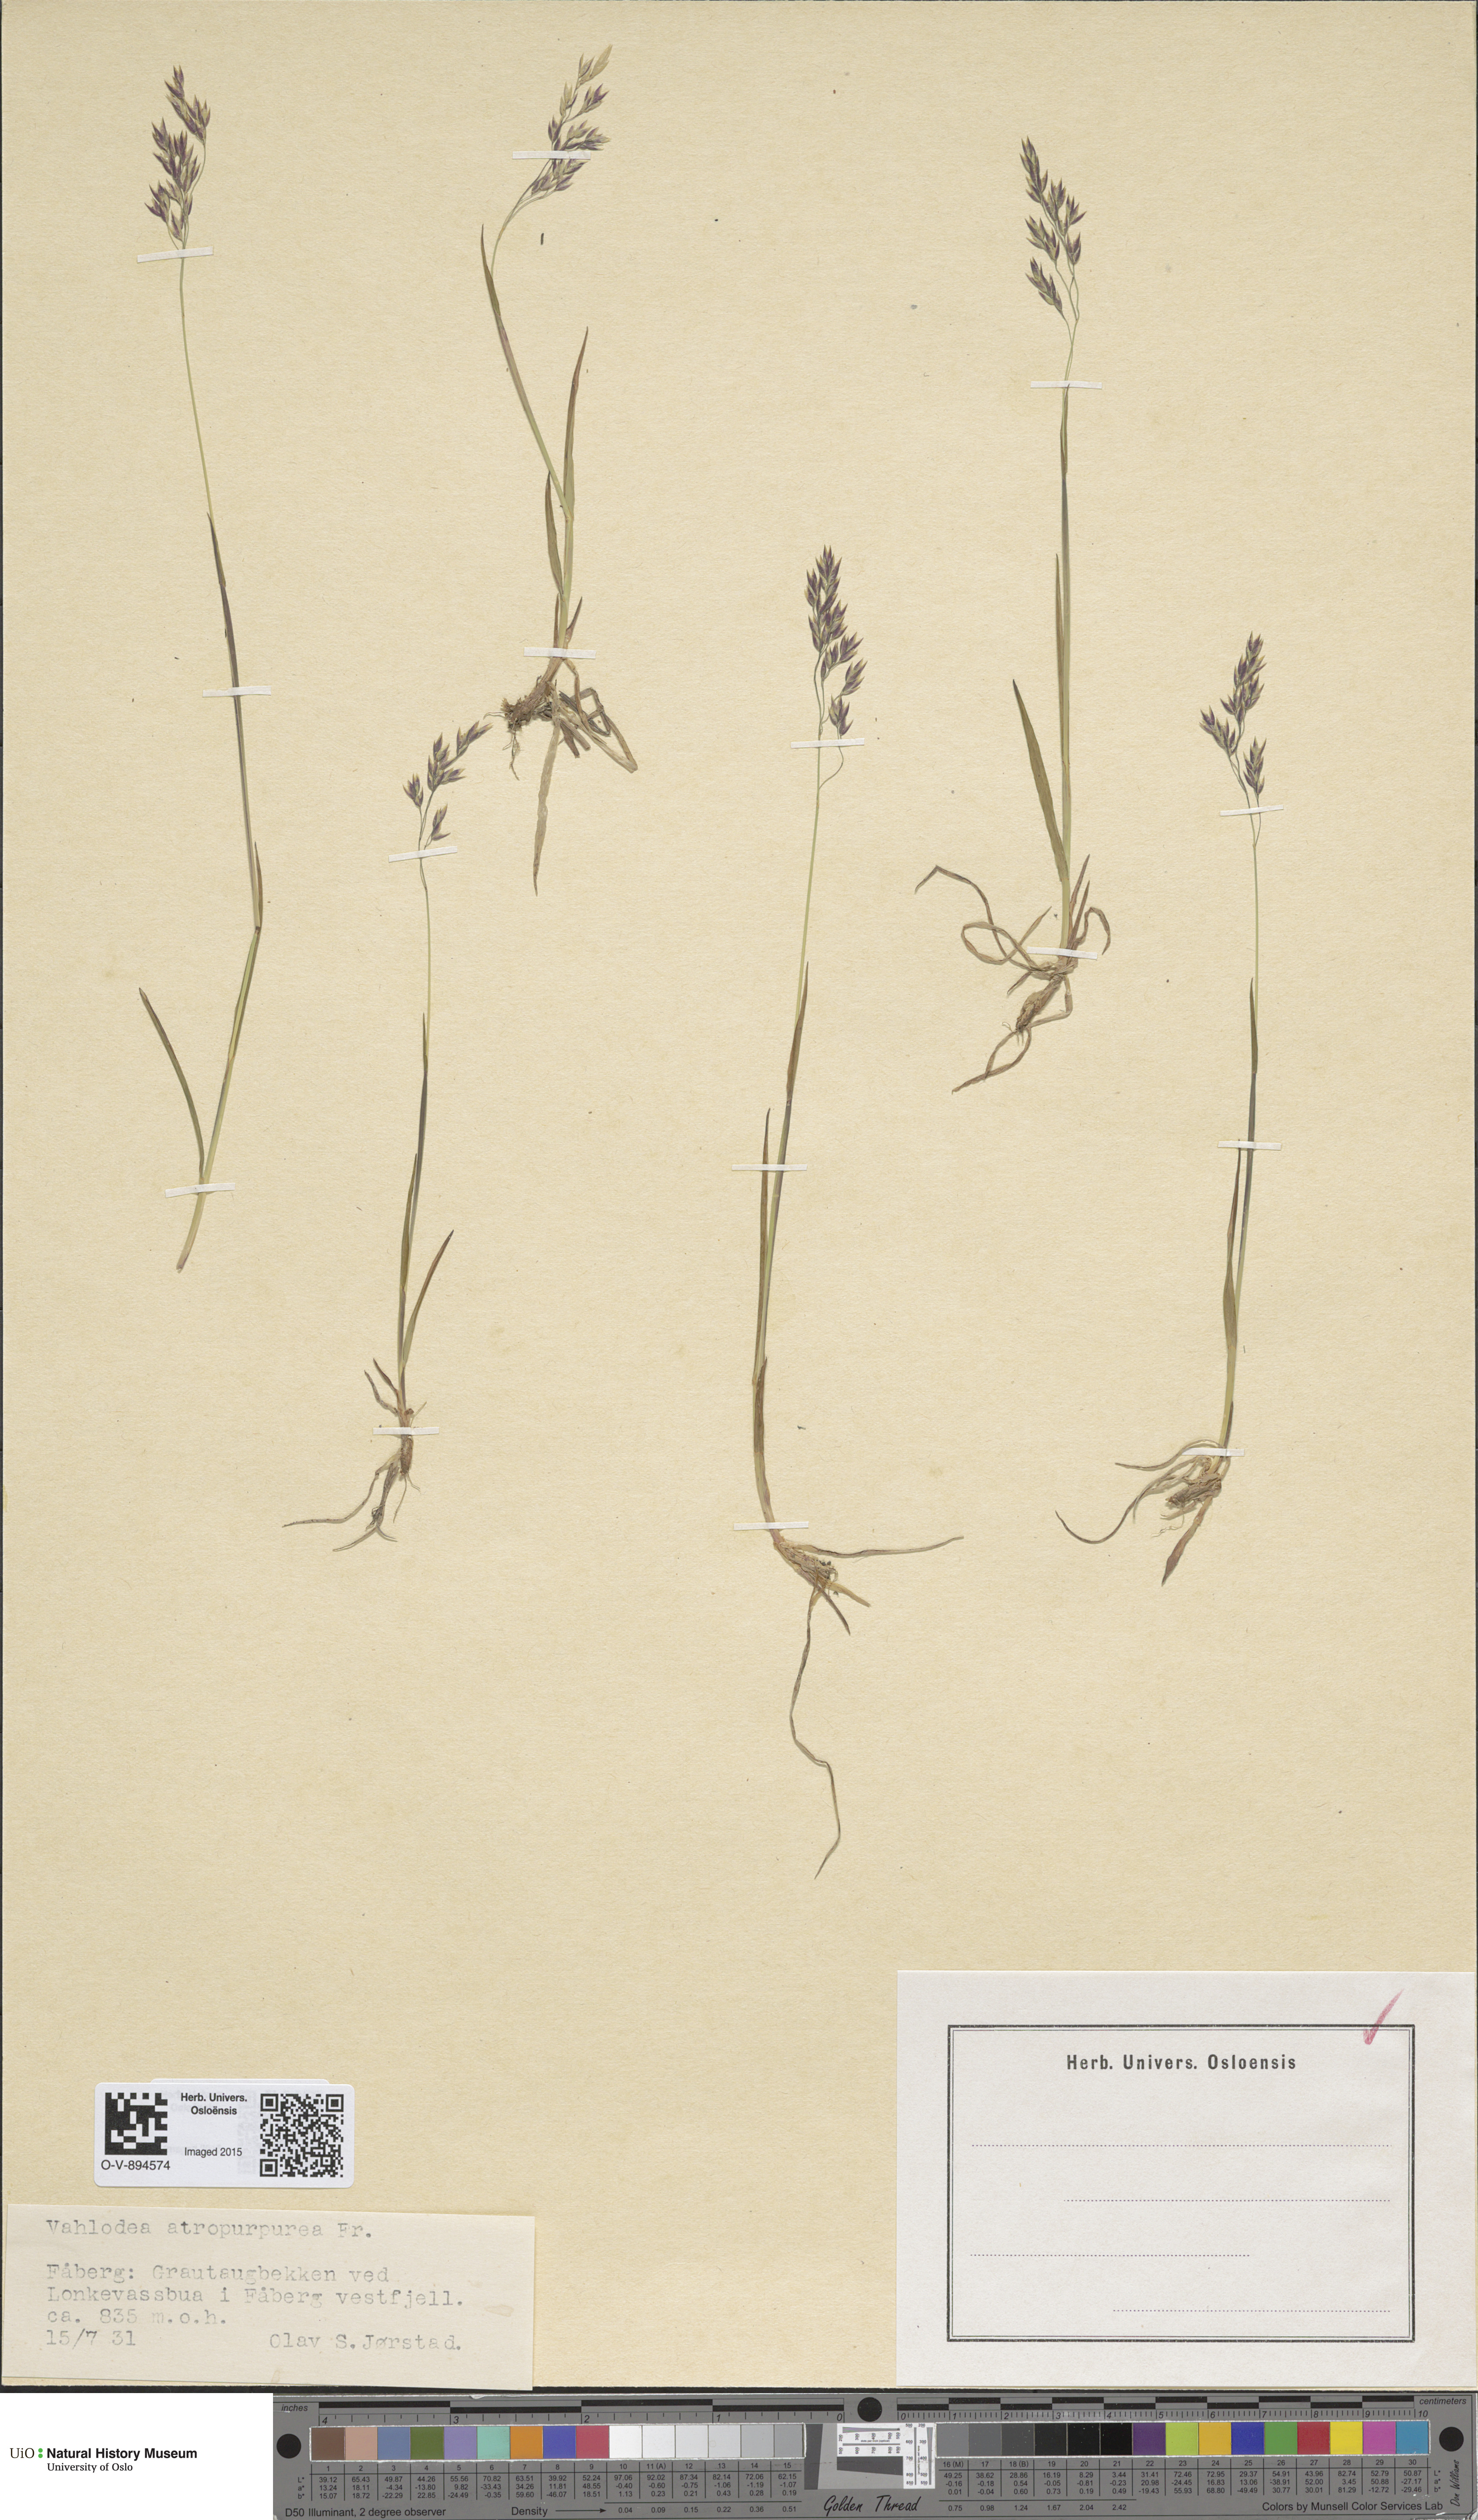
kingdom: Plantae
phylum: Tracheophyta
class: Liliopsida
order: Poales
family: Poaceae
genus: Vahlodea
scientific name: Vahlodea atropurpurea
